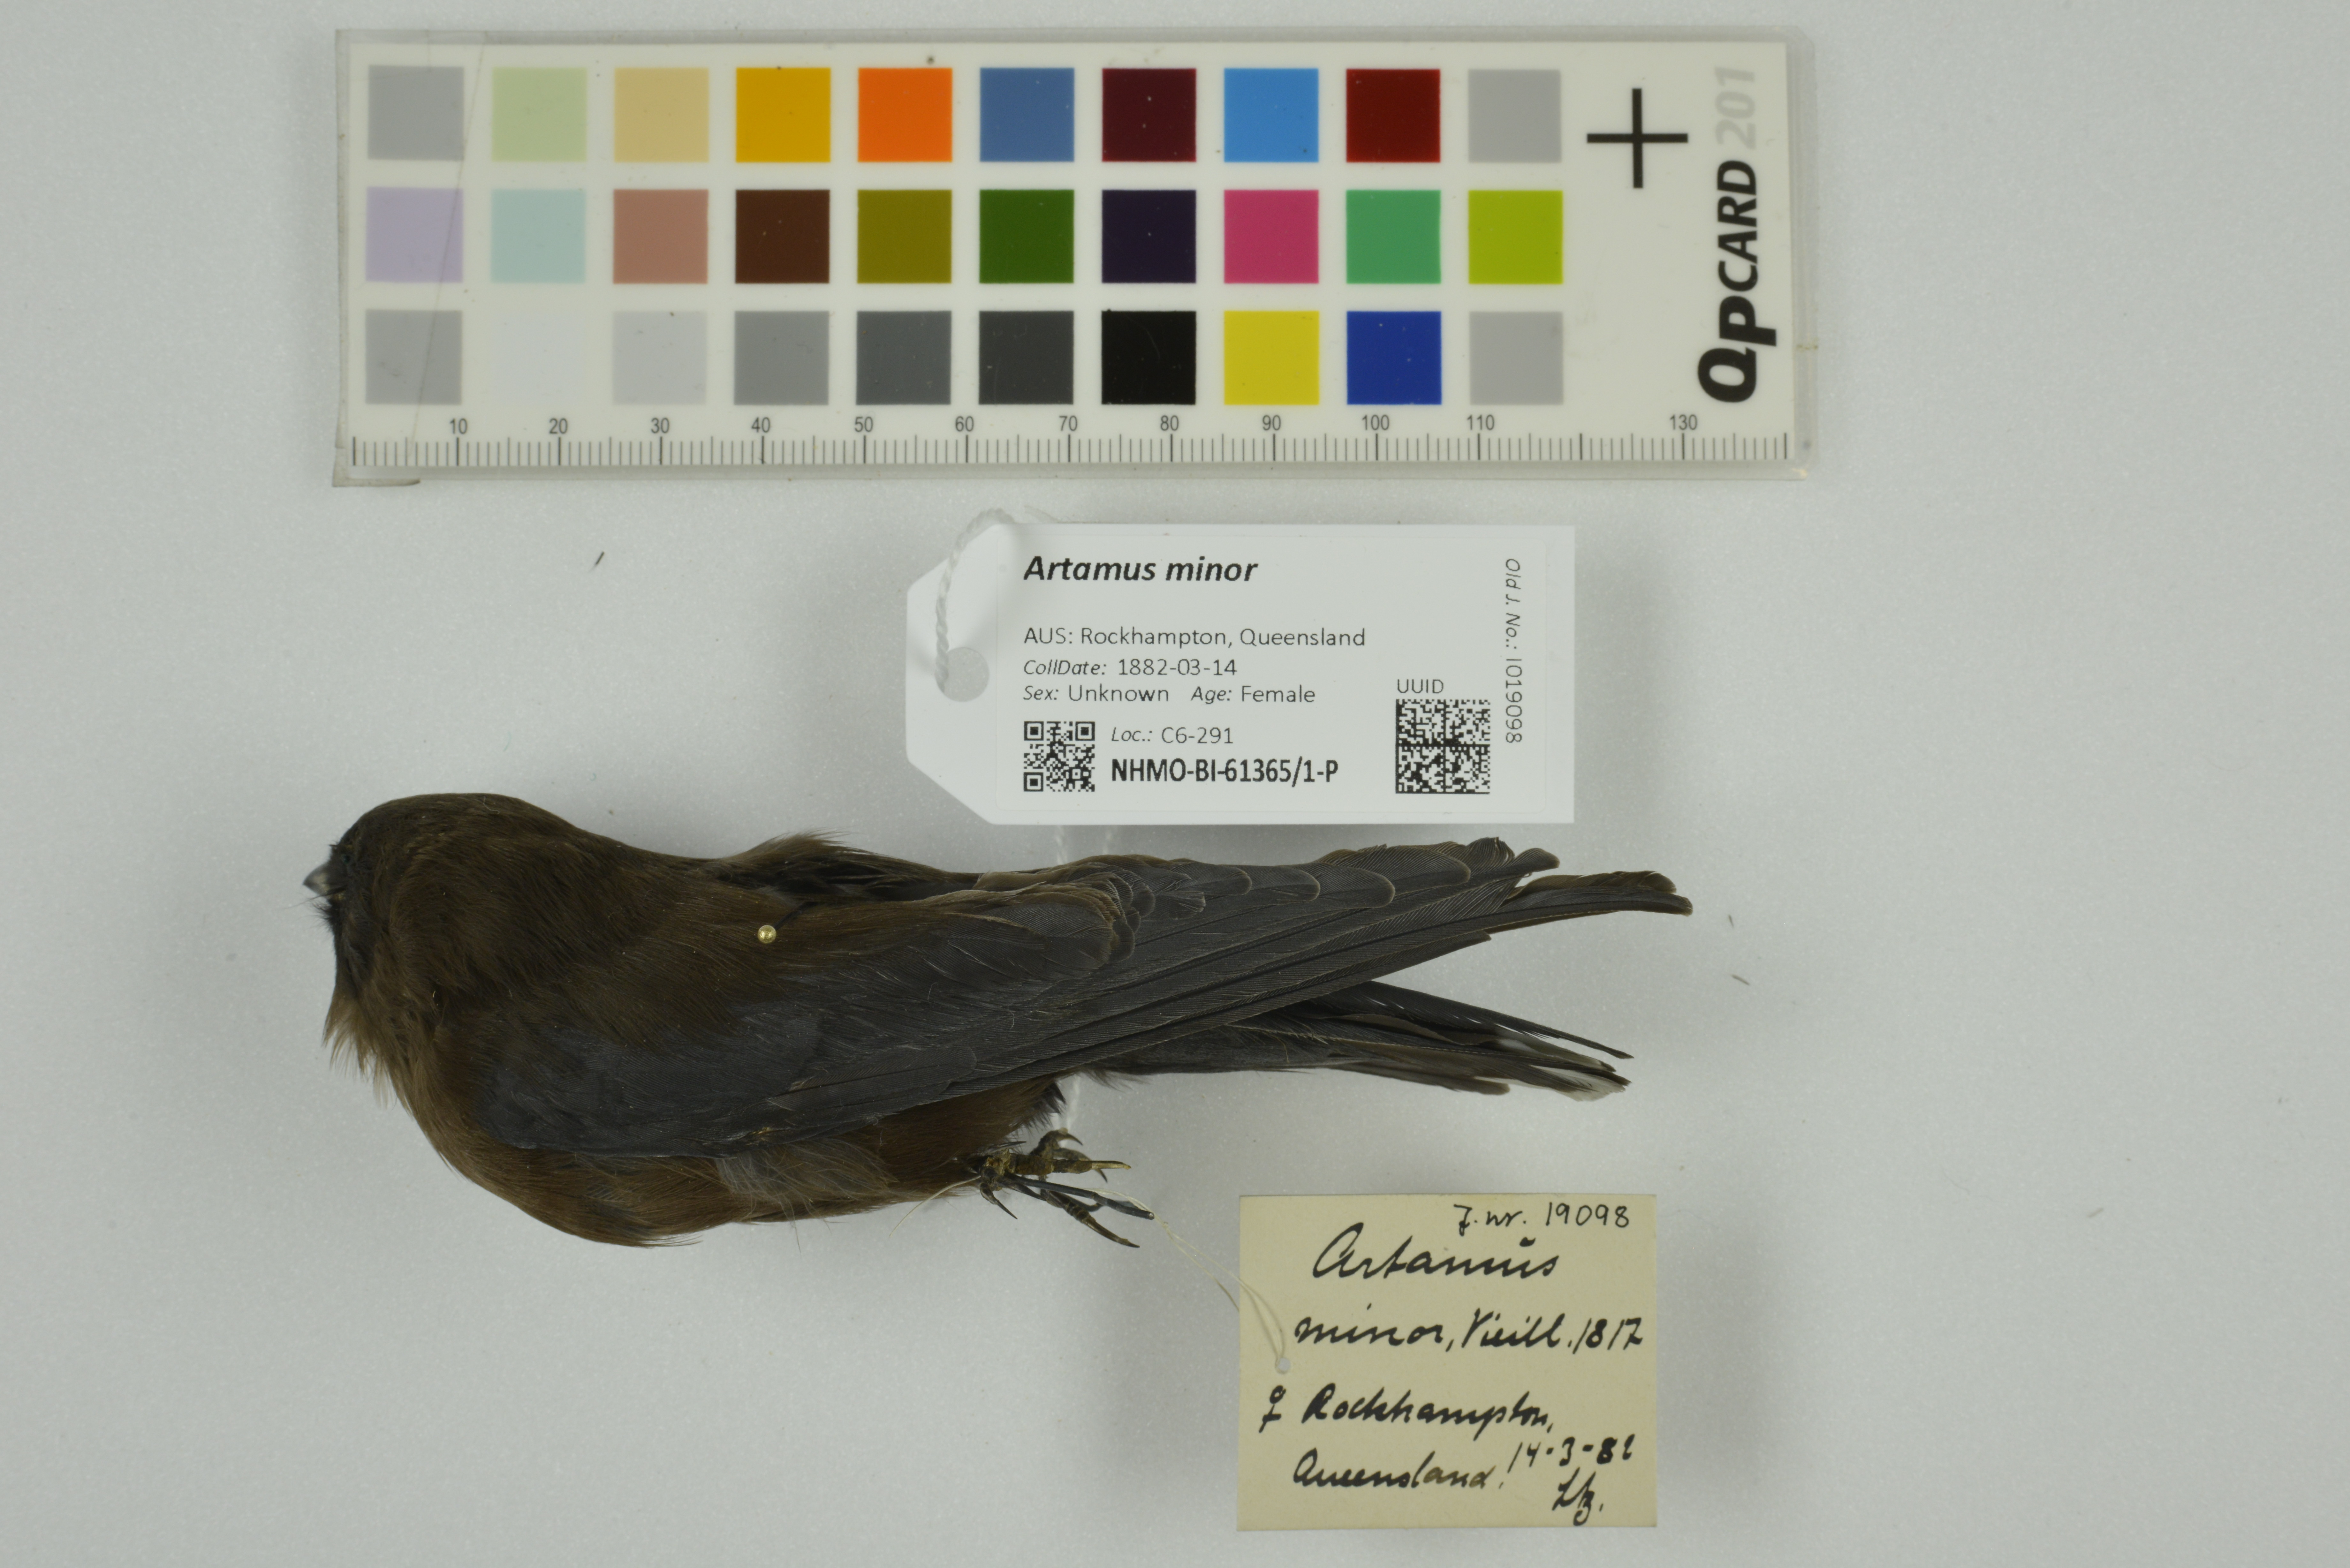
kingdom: Animalia
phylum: Chordata
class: Aves
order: Passeriformes
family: Artamidae
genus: Artamus
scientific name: Artamus minor
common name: Little woodswallow
